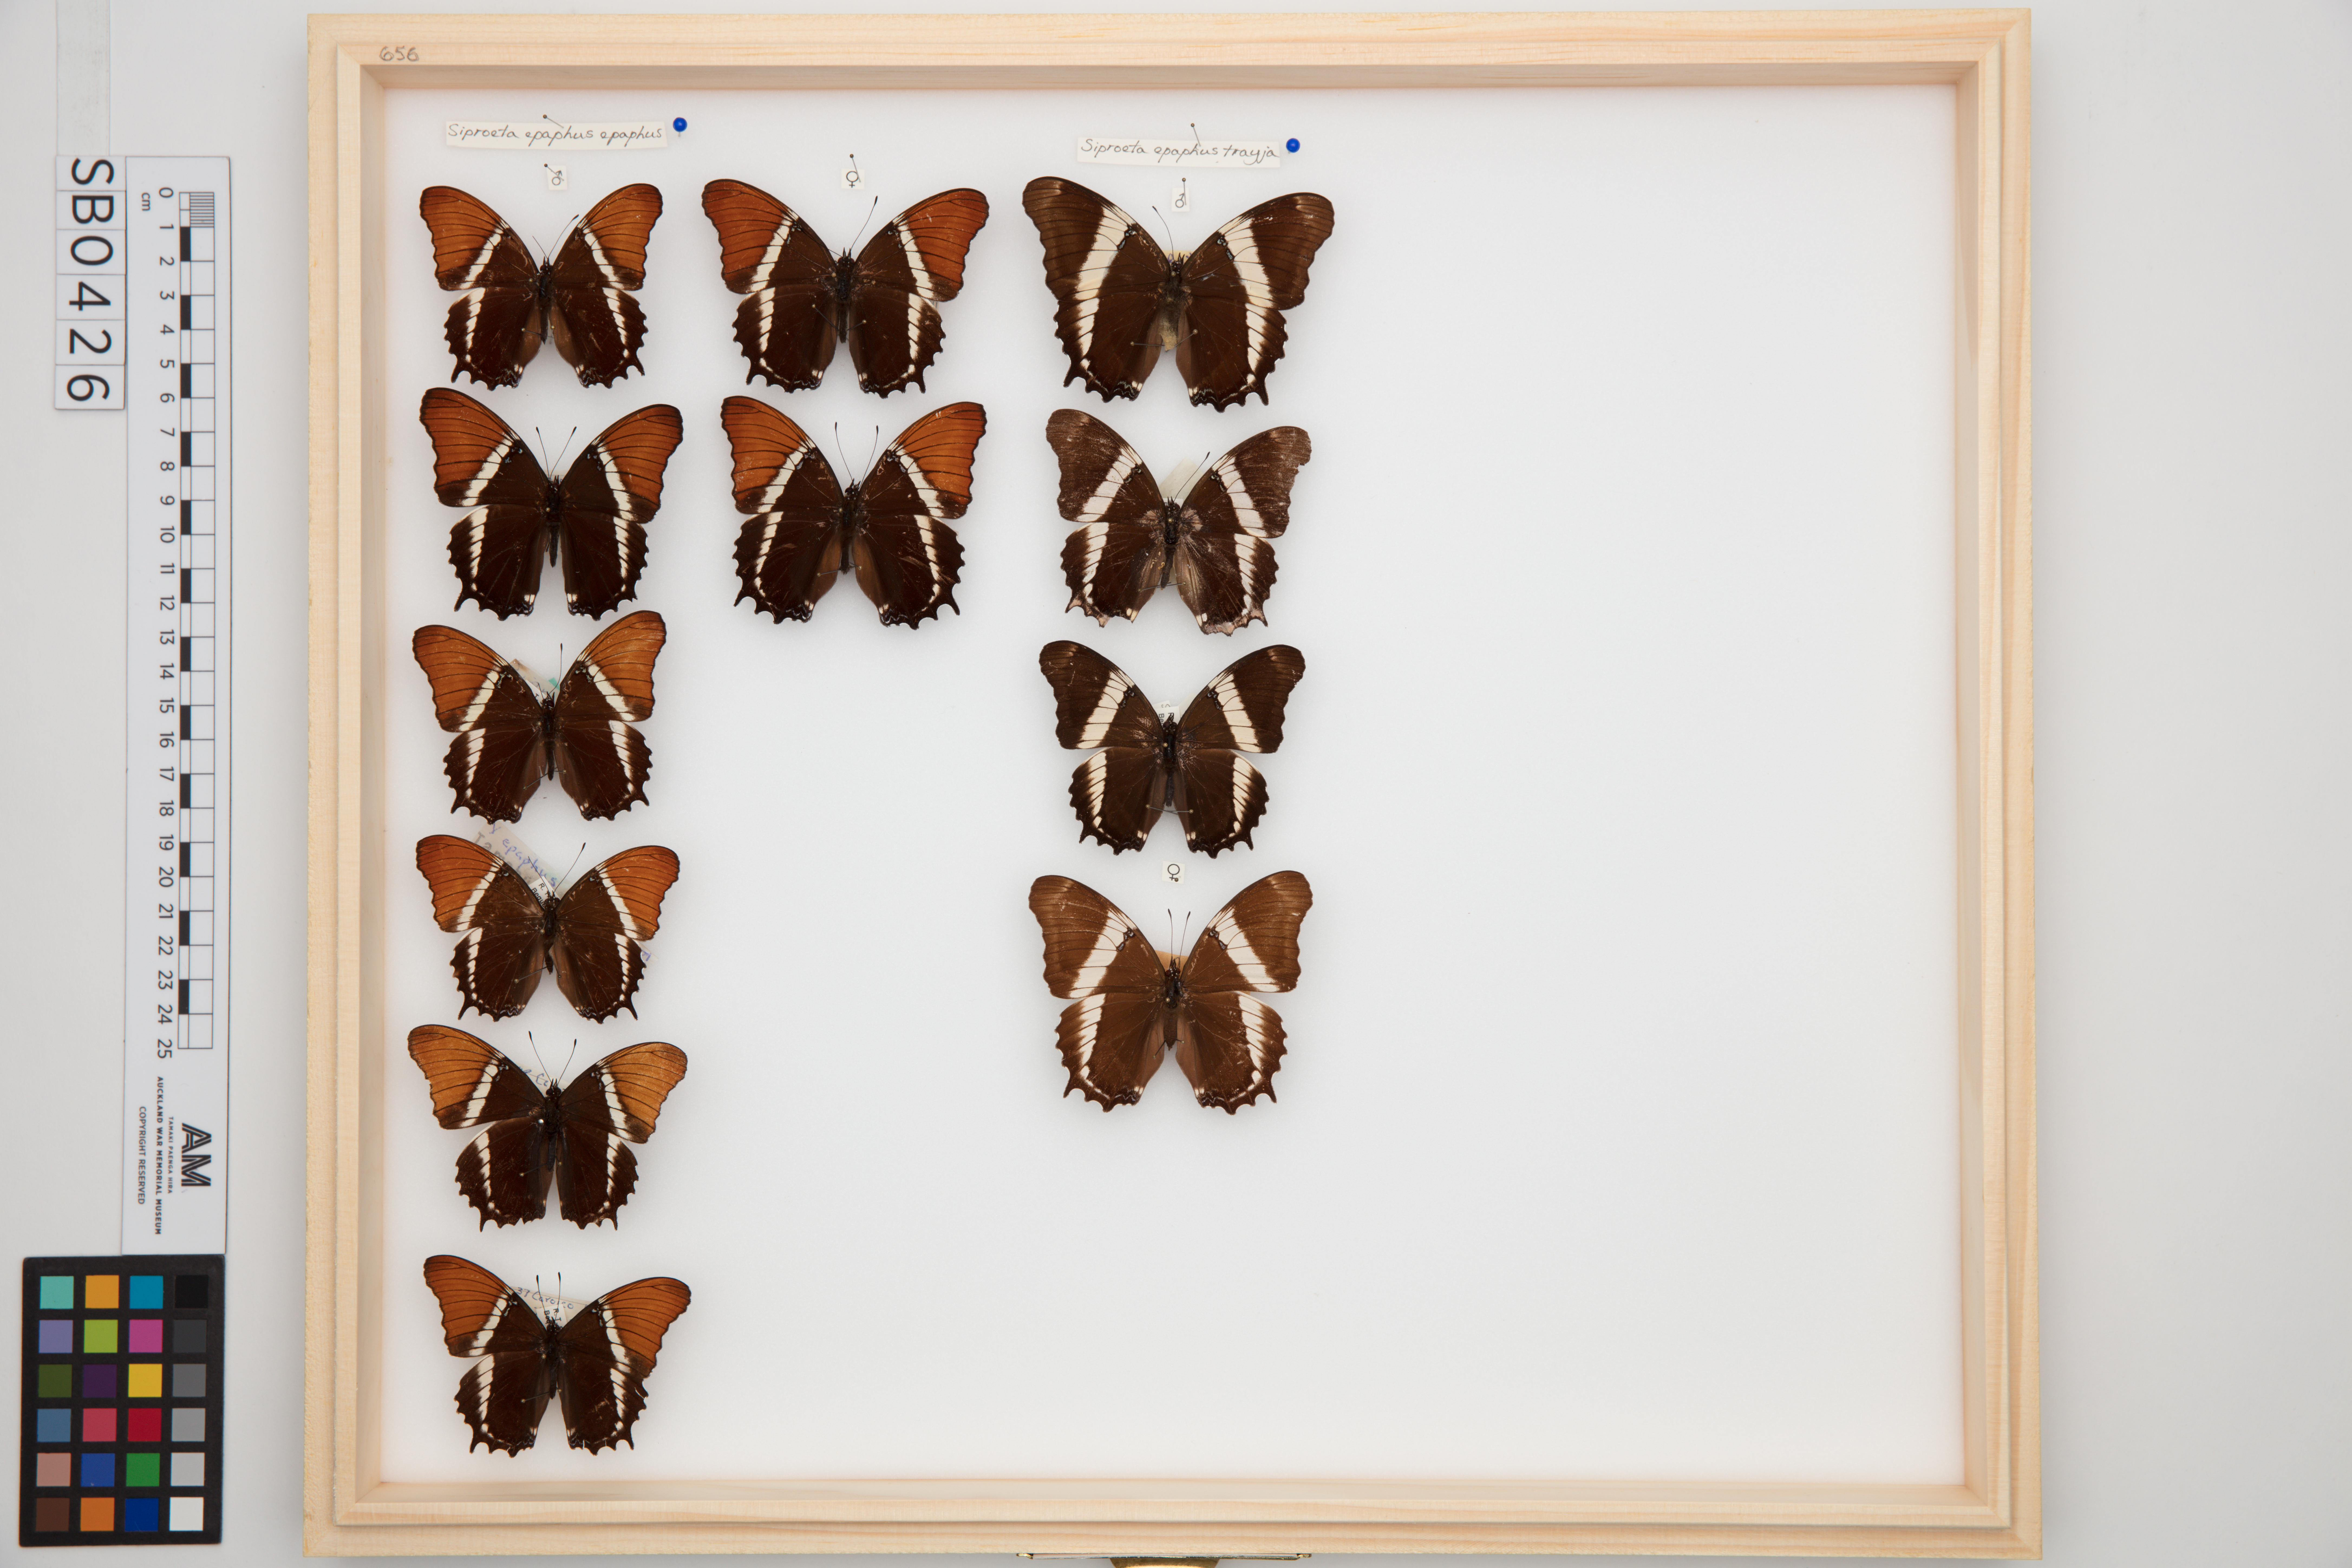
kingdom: Animalia
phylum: Arthropoda
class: Insecta
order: Lepidoptera
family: Nymphalidae
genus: Siproeta
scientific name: Siproeta epaphus
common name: Rusty-tipped page
